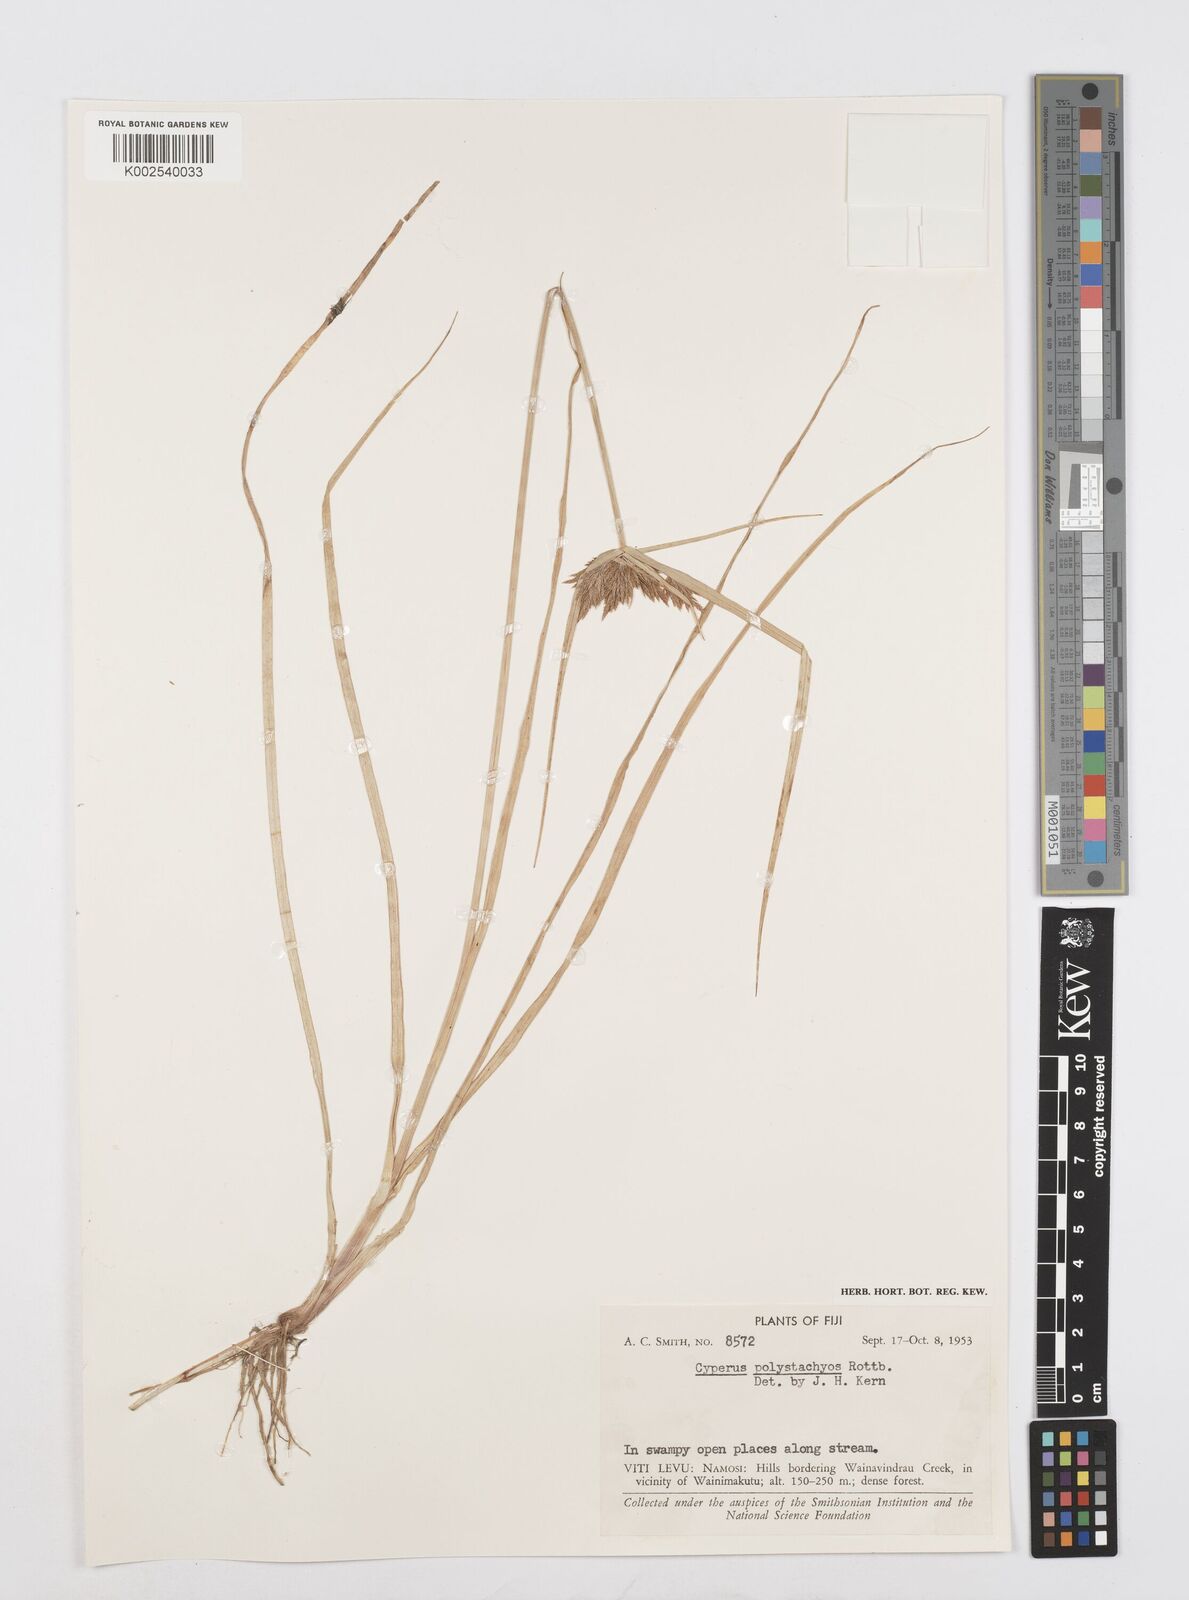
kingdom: Plantae
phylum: Tracheophyta
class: Liliopsida
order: Poales
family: Cyperaceae
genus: Cyperus
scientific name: Cyperus polystachyos
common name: Bunchy flat sedge
